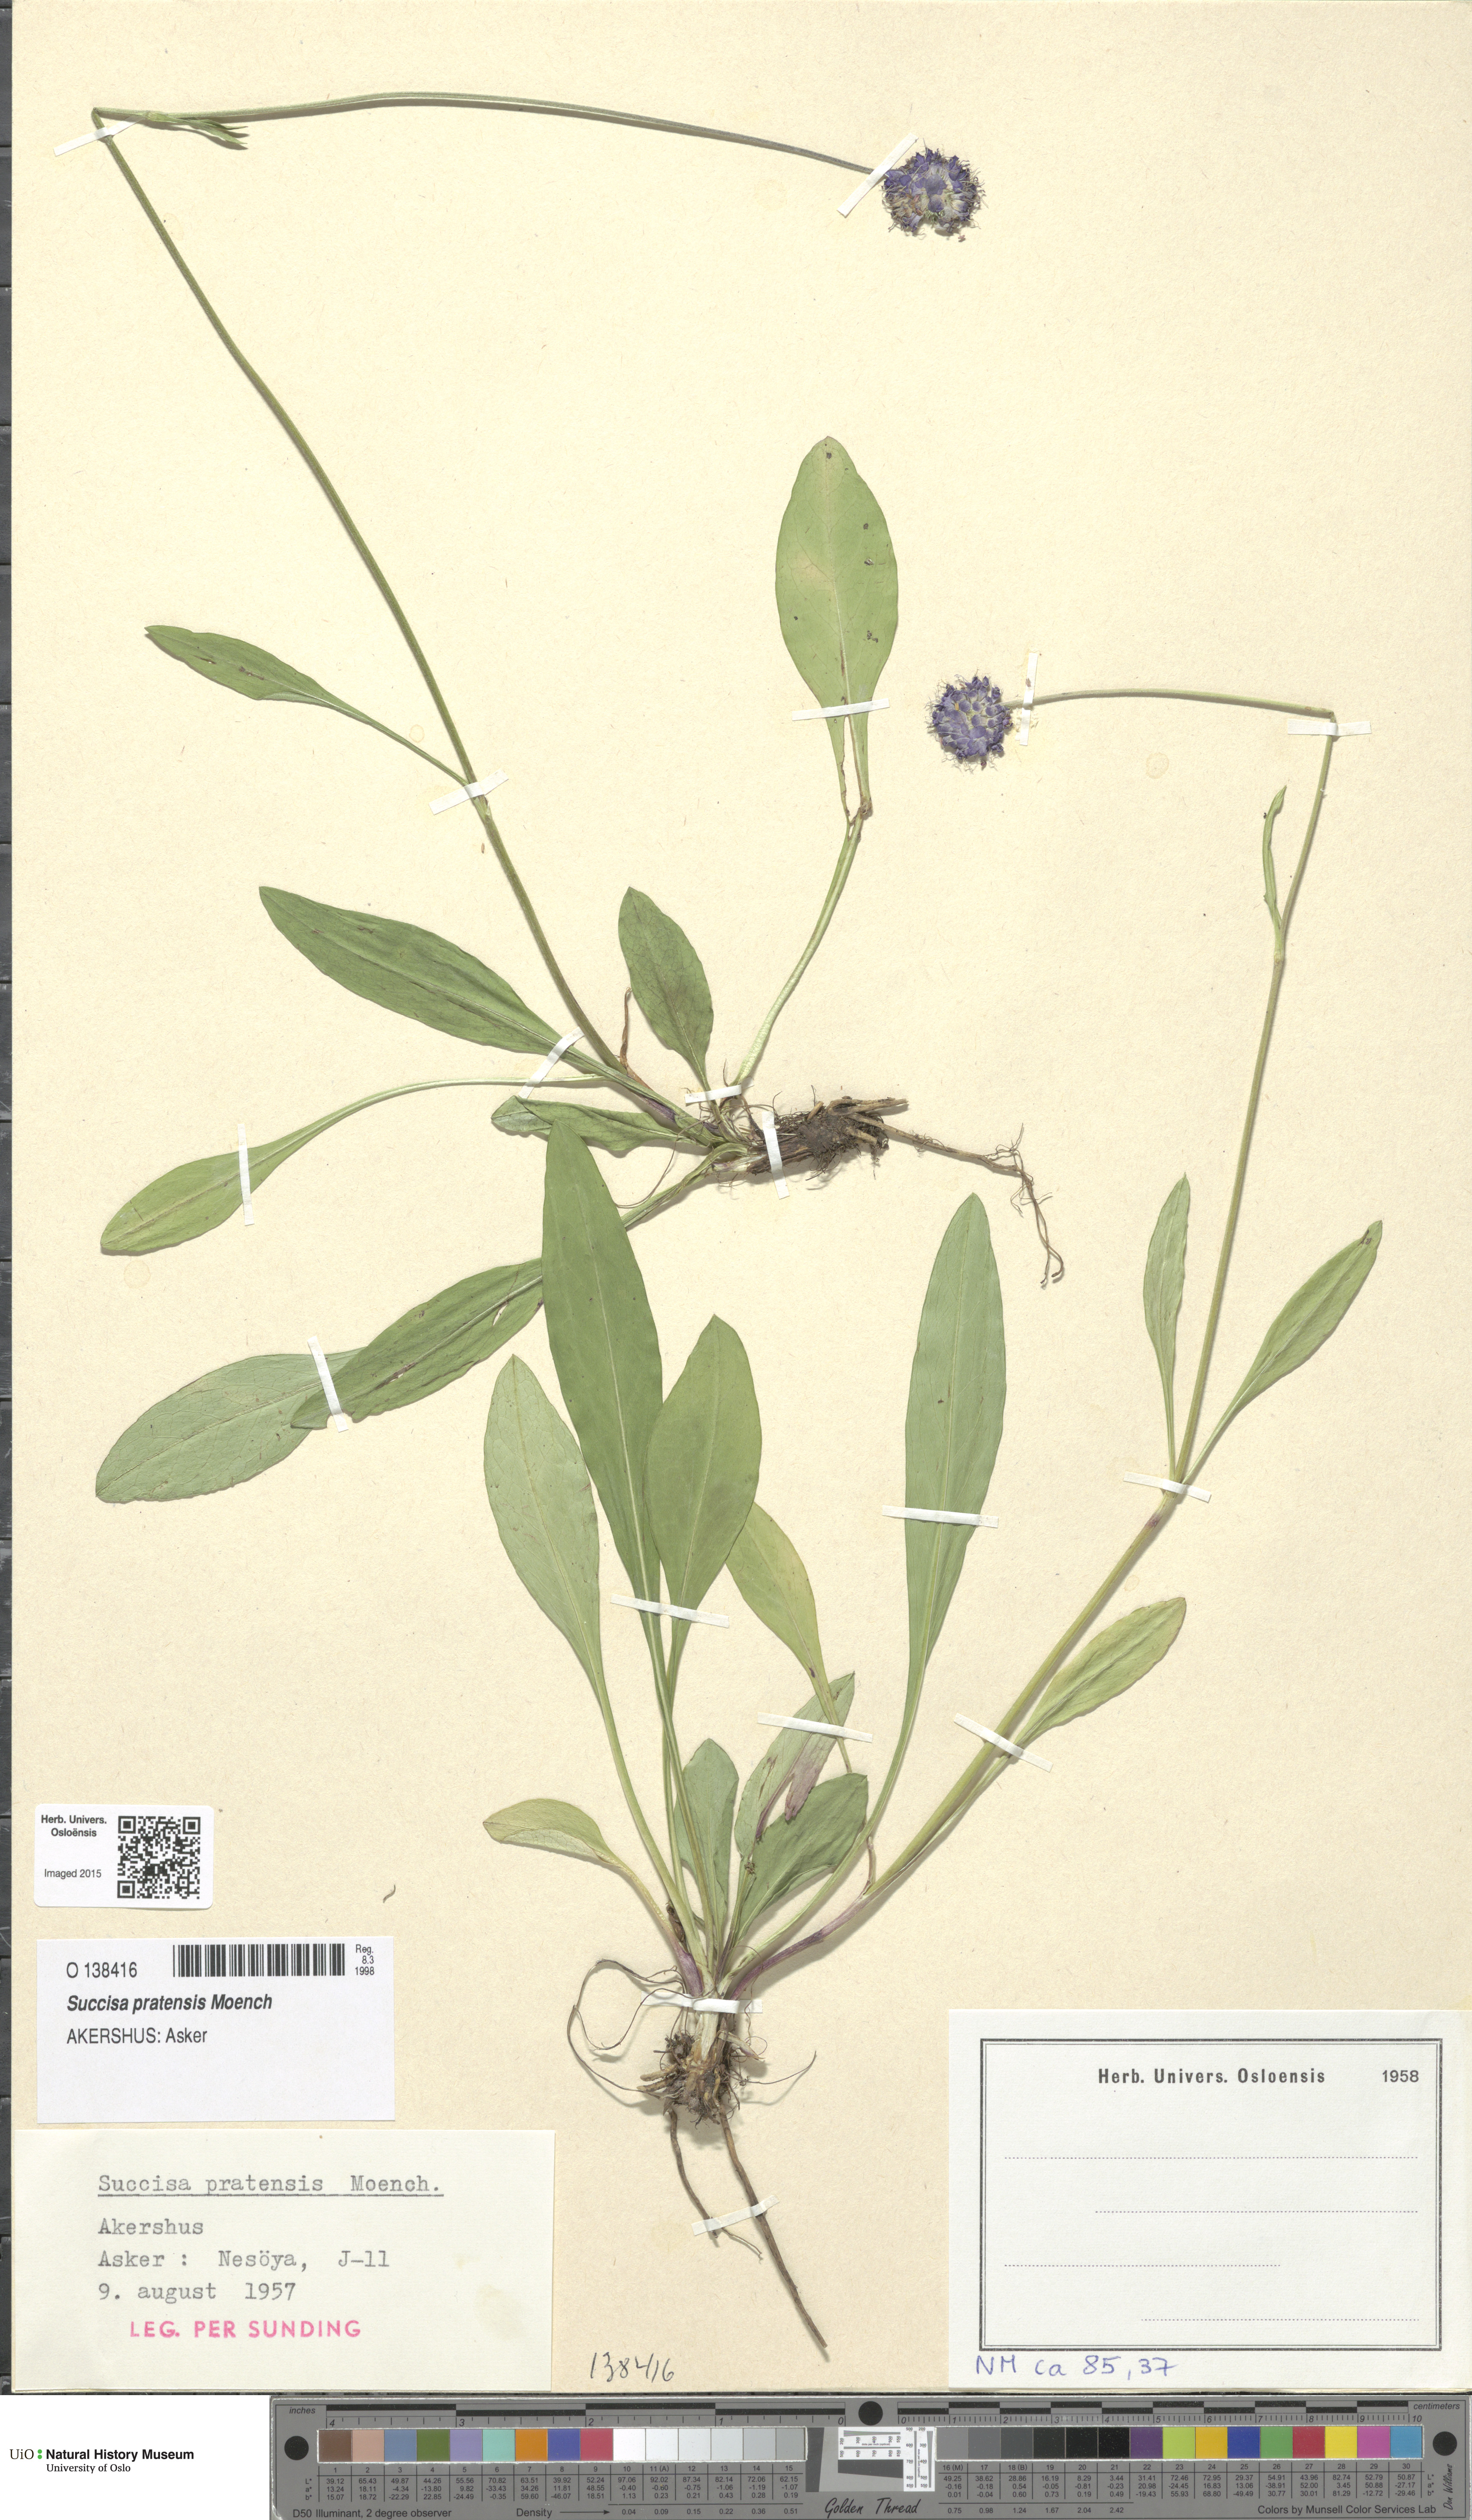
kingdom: Plantae
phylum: Tracheophyta
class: Magnoliopsida
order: Dipsacales
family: Caprifoliaceae
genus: Succisa
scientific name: Succisa pratensis
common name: Devil's-bit
